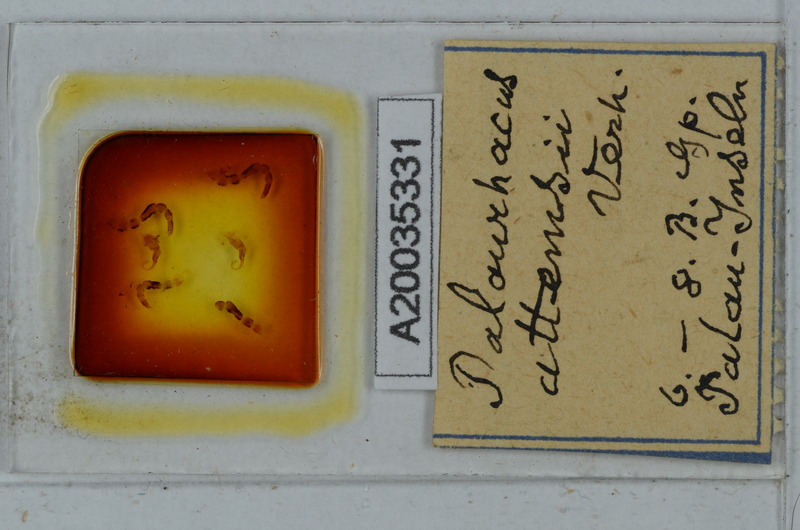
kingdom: Animalia
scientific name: Animalia
